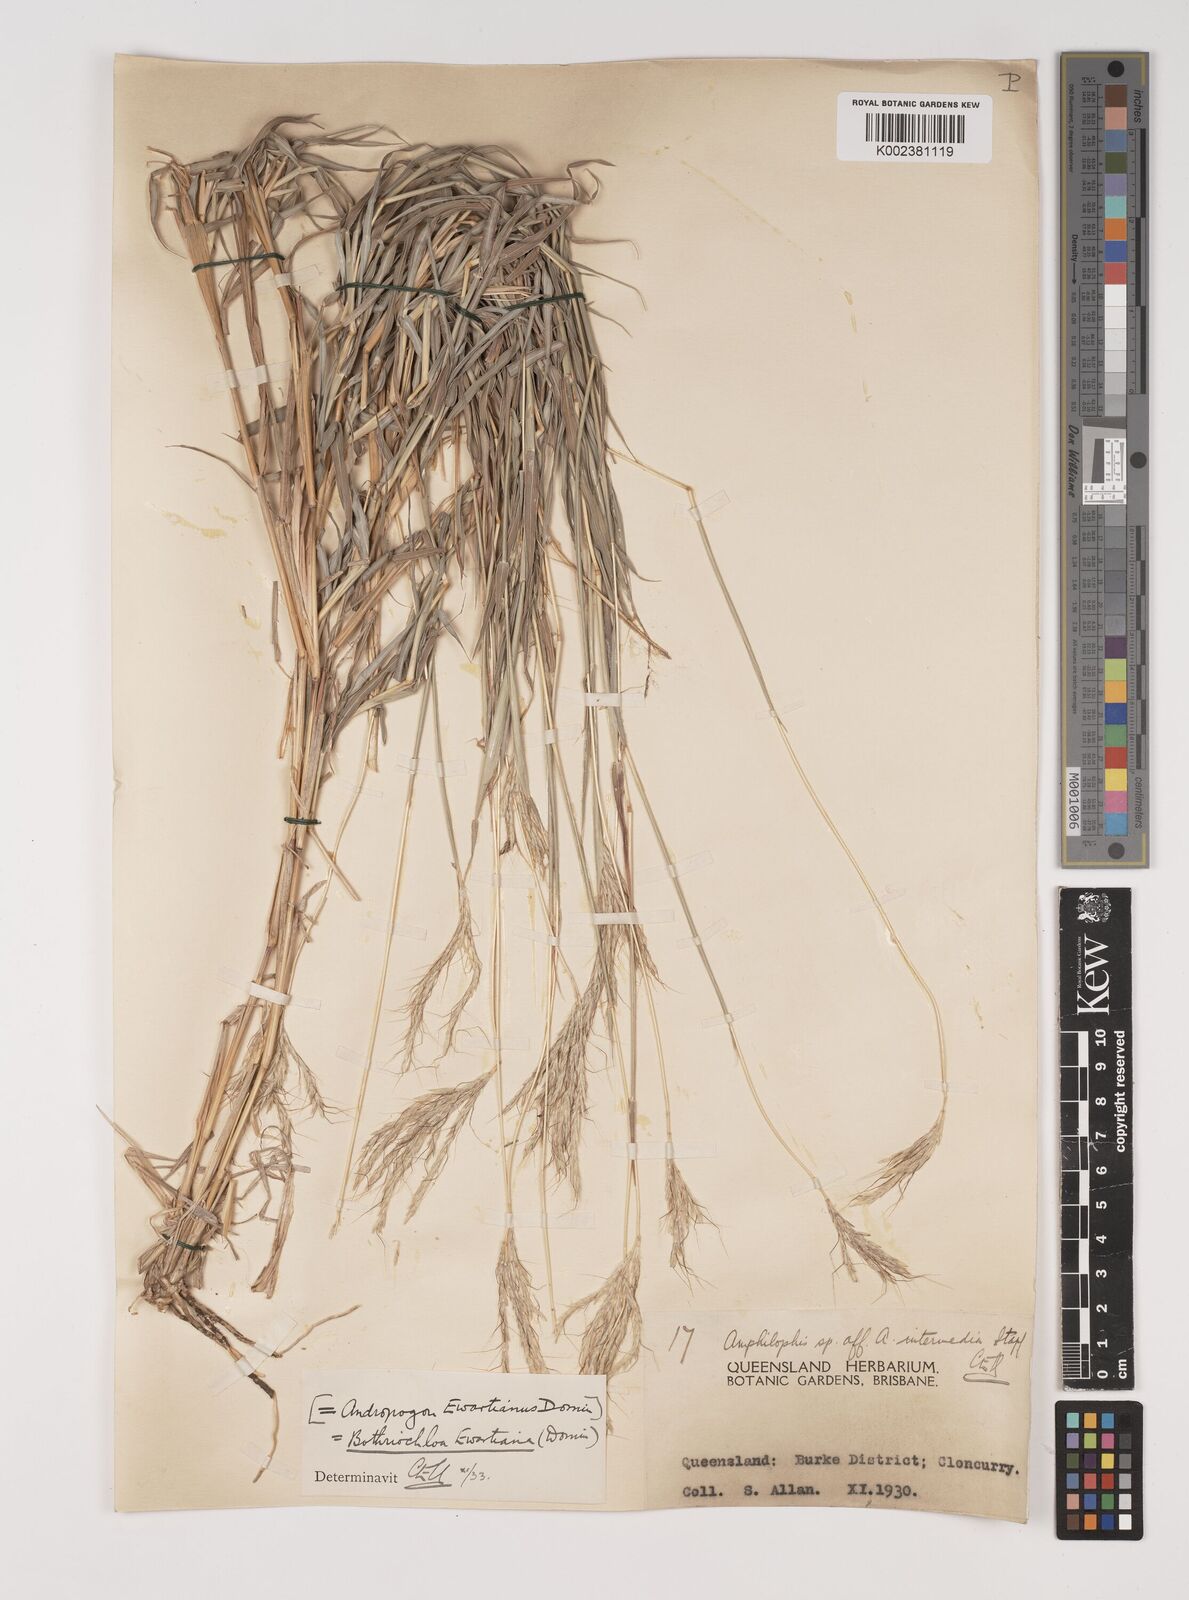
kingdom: Plantae
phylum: Tracheophyta
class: Liliopsida
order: Poales
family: Poaceae
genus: Bothriochloa
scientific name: Bothriochloa ewartiana
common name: Desert-bluegrass
